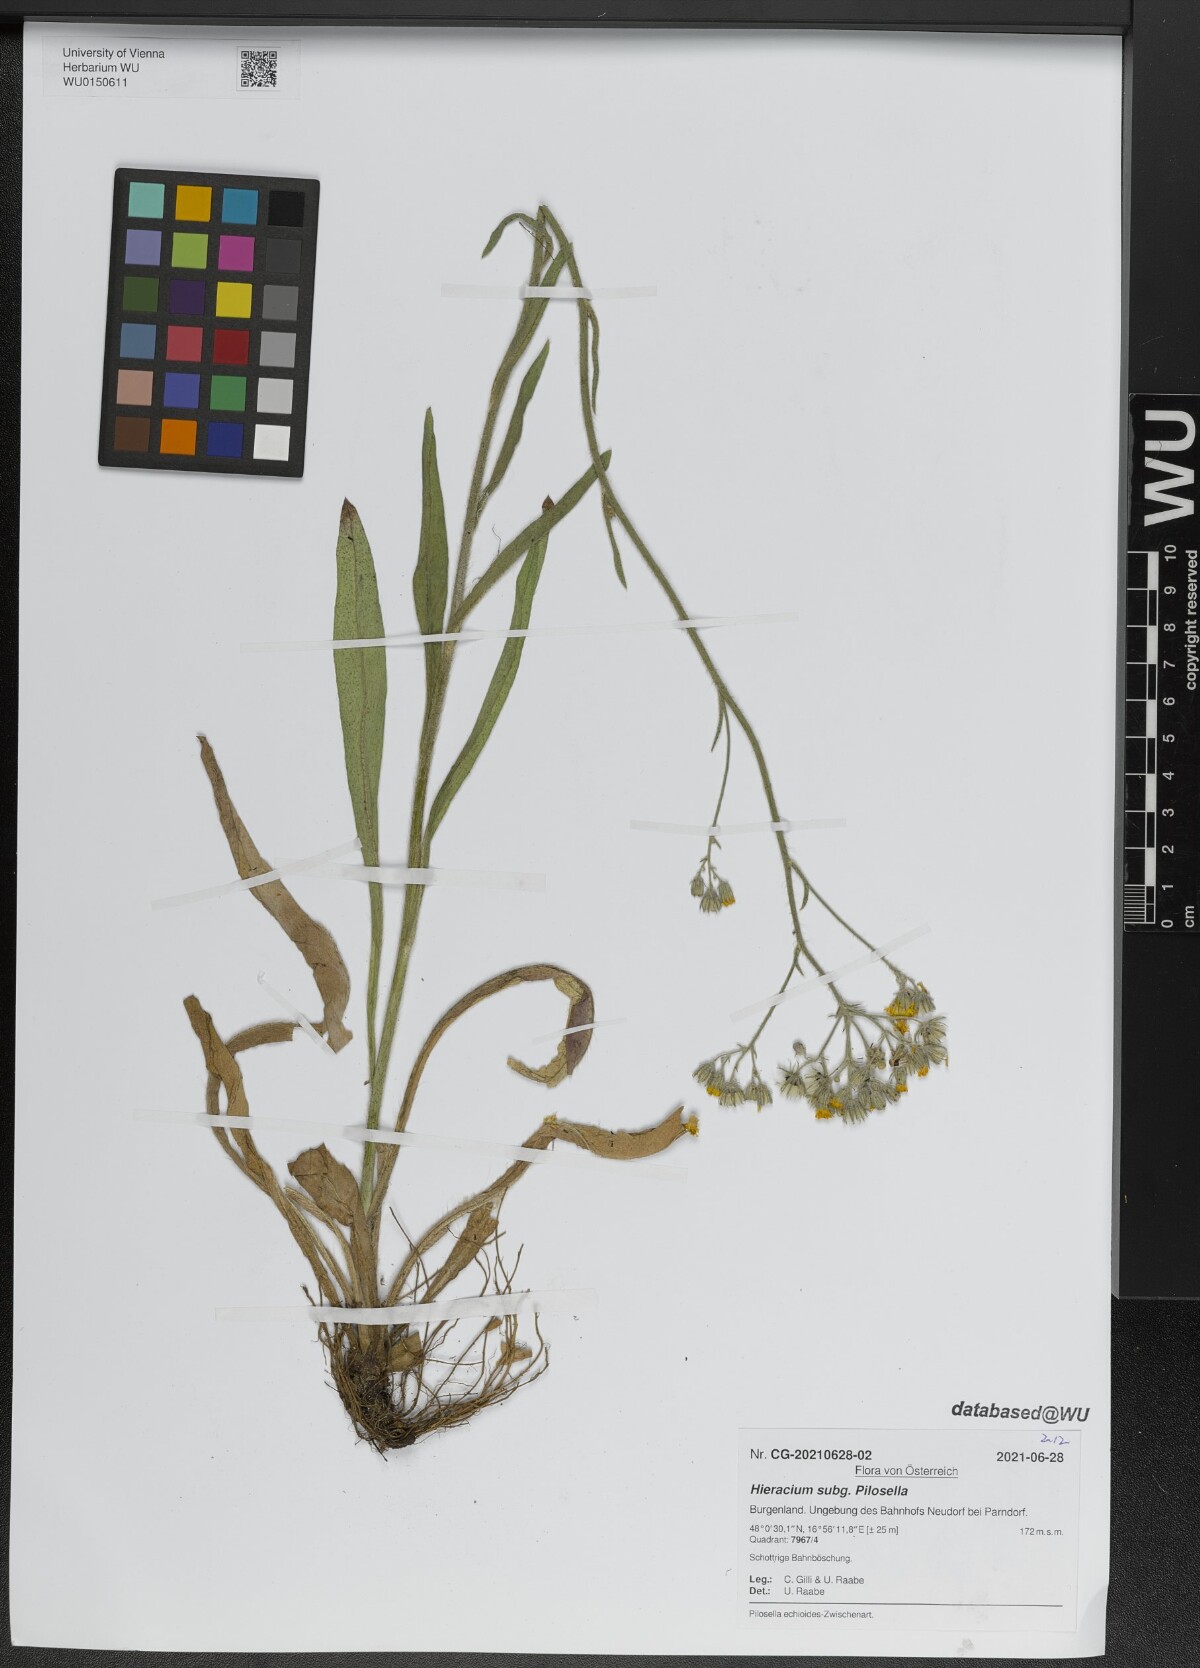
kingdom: Plantae
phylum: Tracheophyta
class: Magnoliopsida
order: Asterales
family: Asteraceae
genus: Pilosella
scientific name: Pilosella
